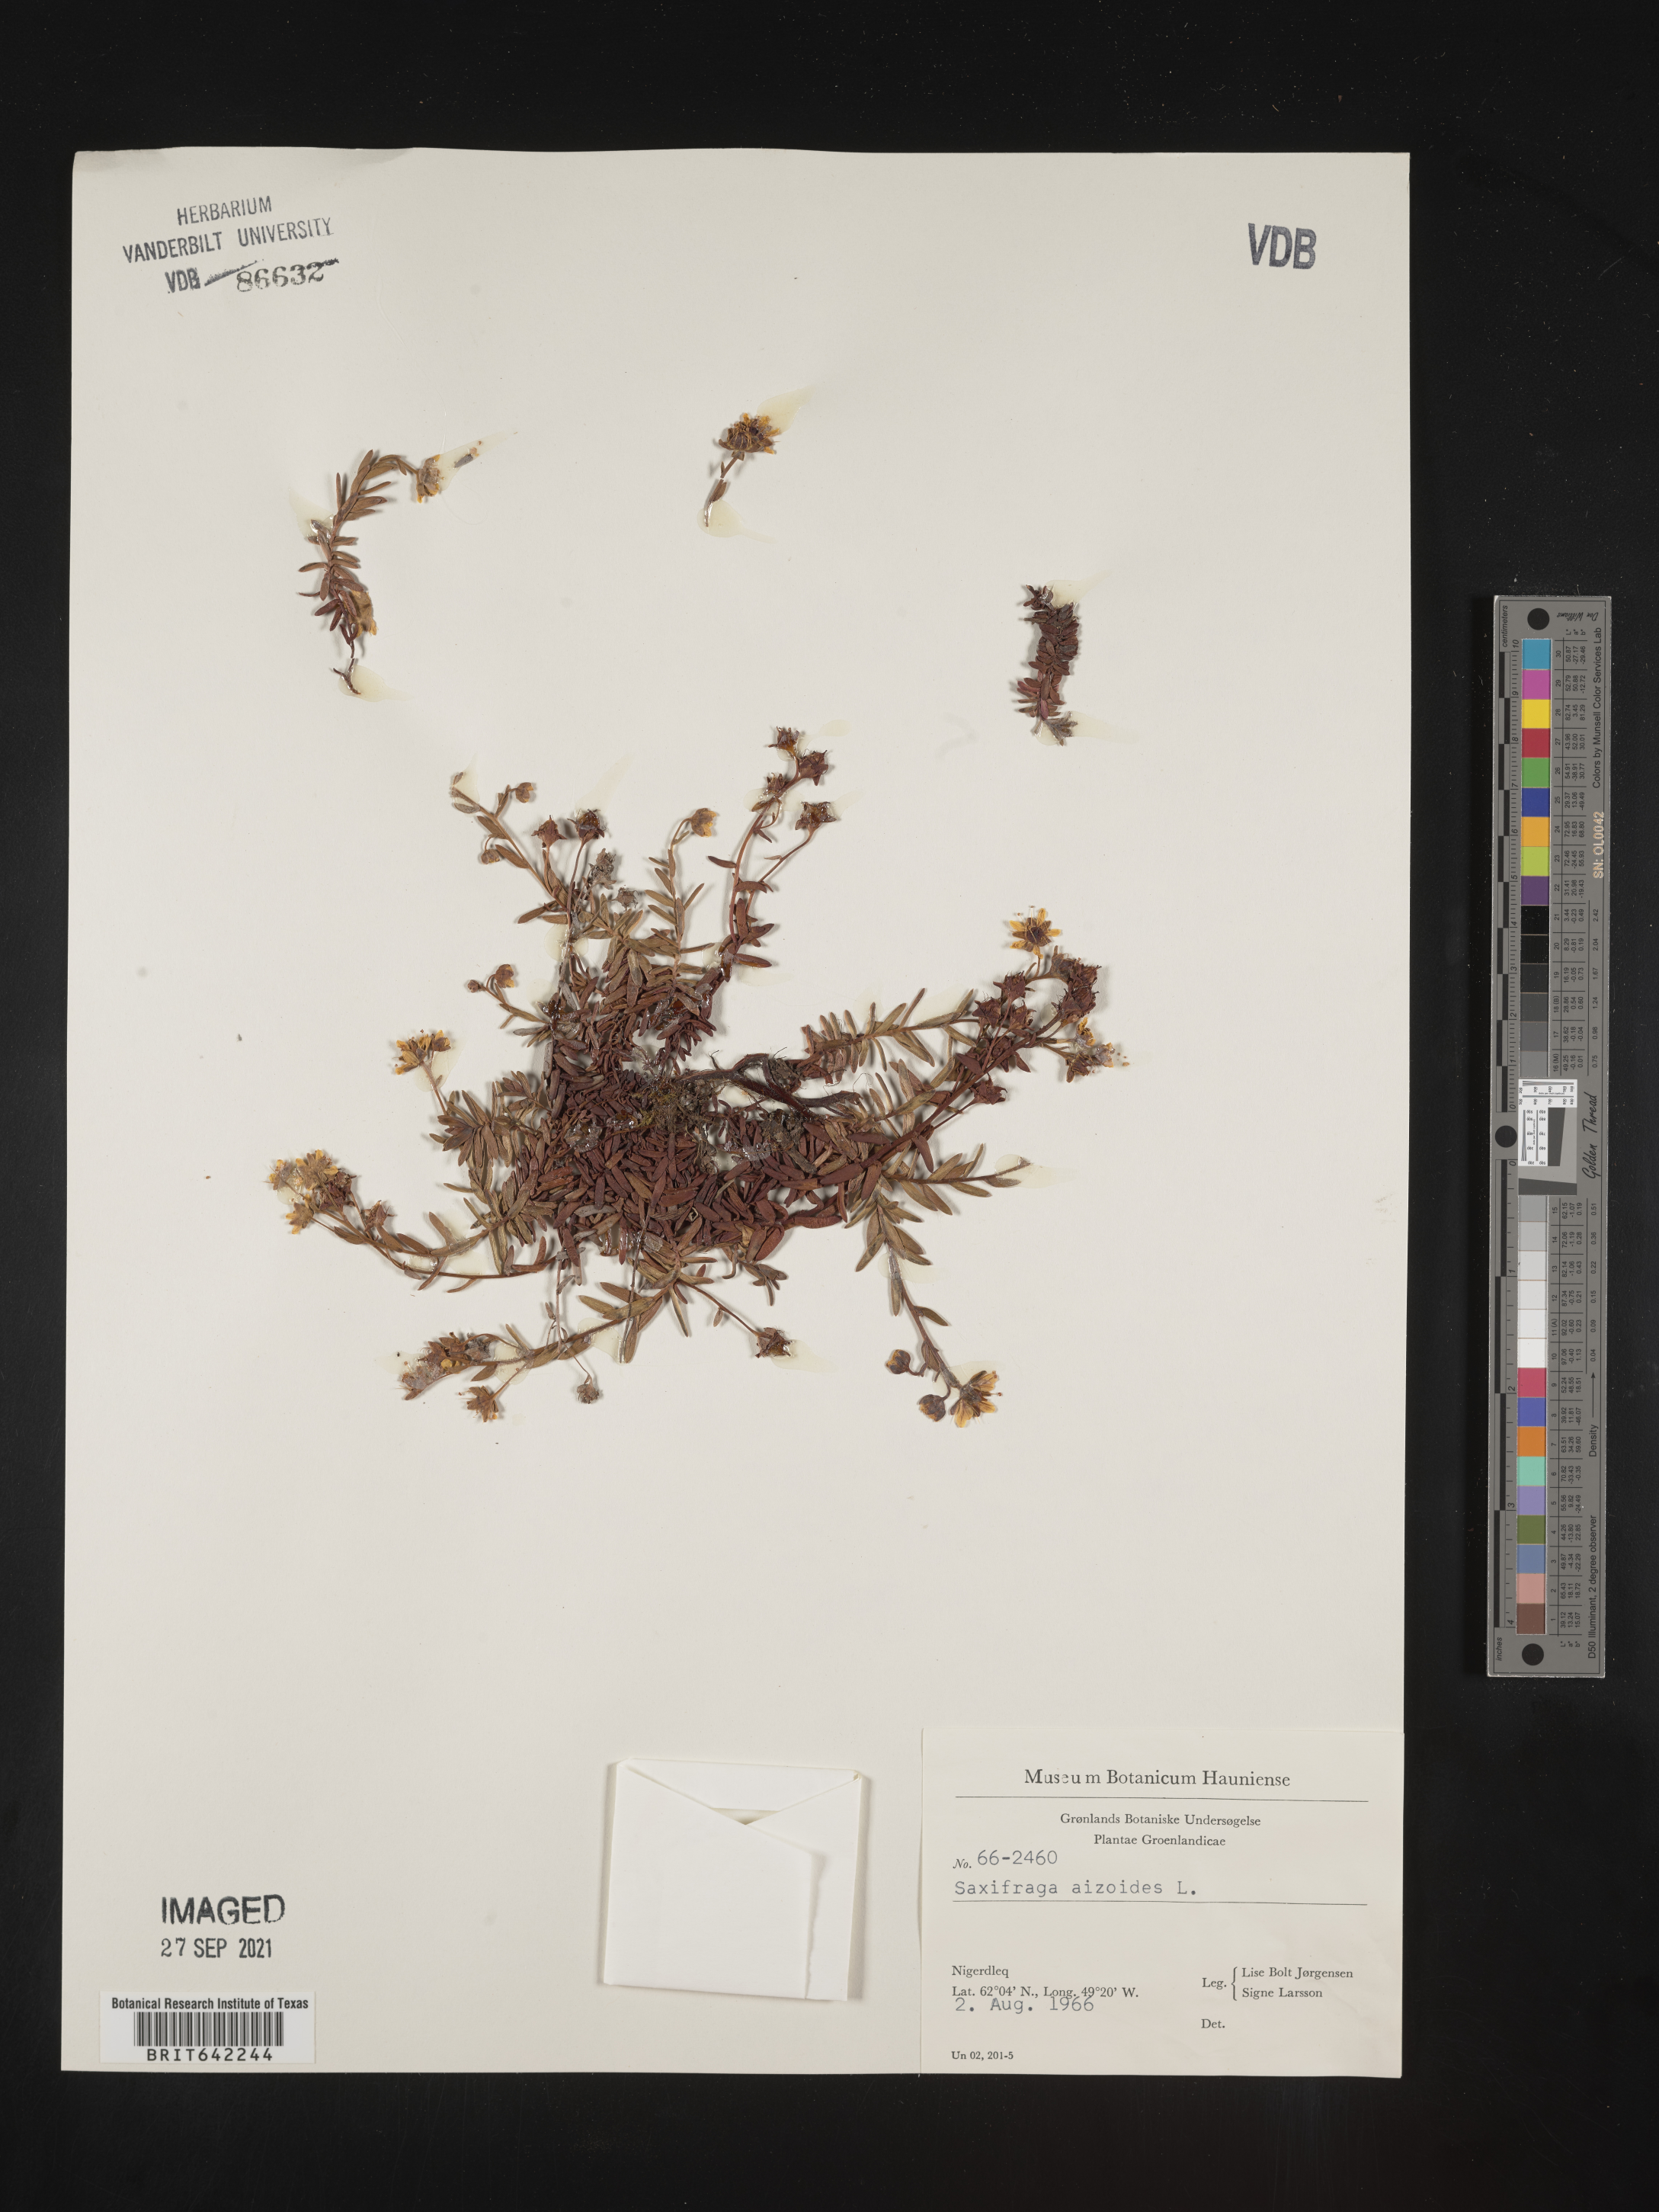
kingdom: Plantae
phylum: Tracheophyta
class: Magnoliopsida
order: Saxifragales
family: Saxifragaceae
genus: Saxifraga
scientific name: Saxifraga
